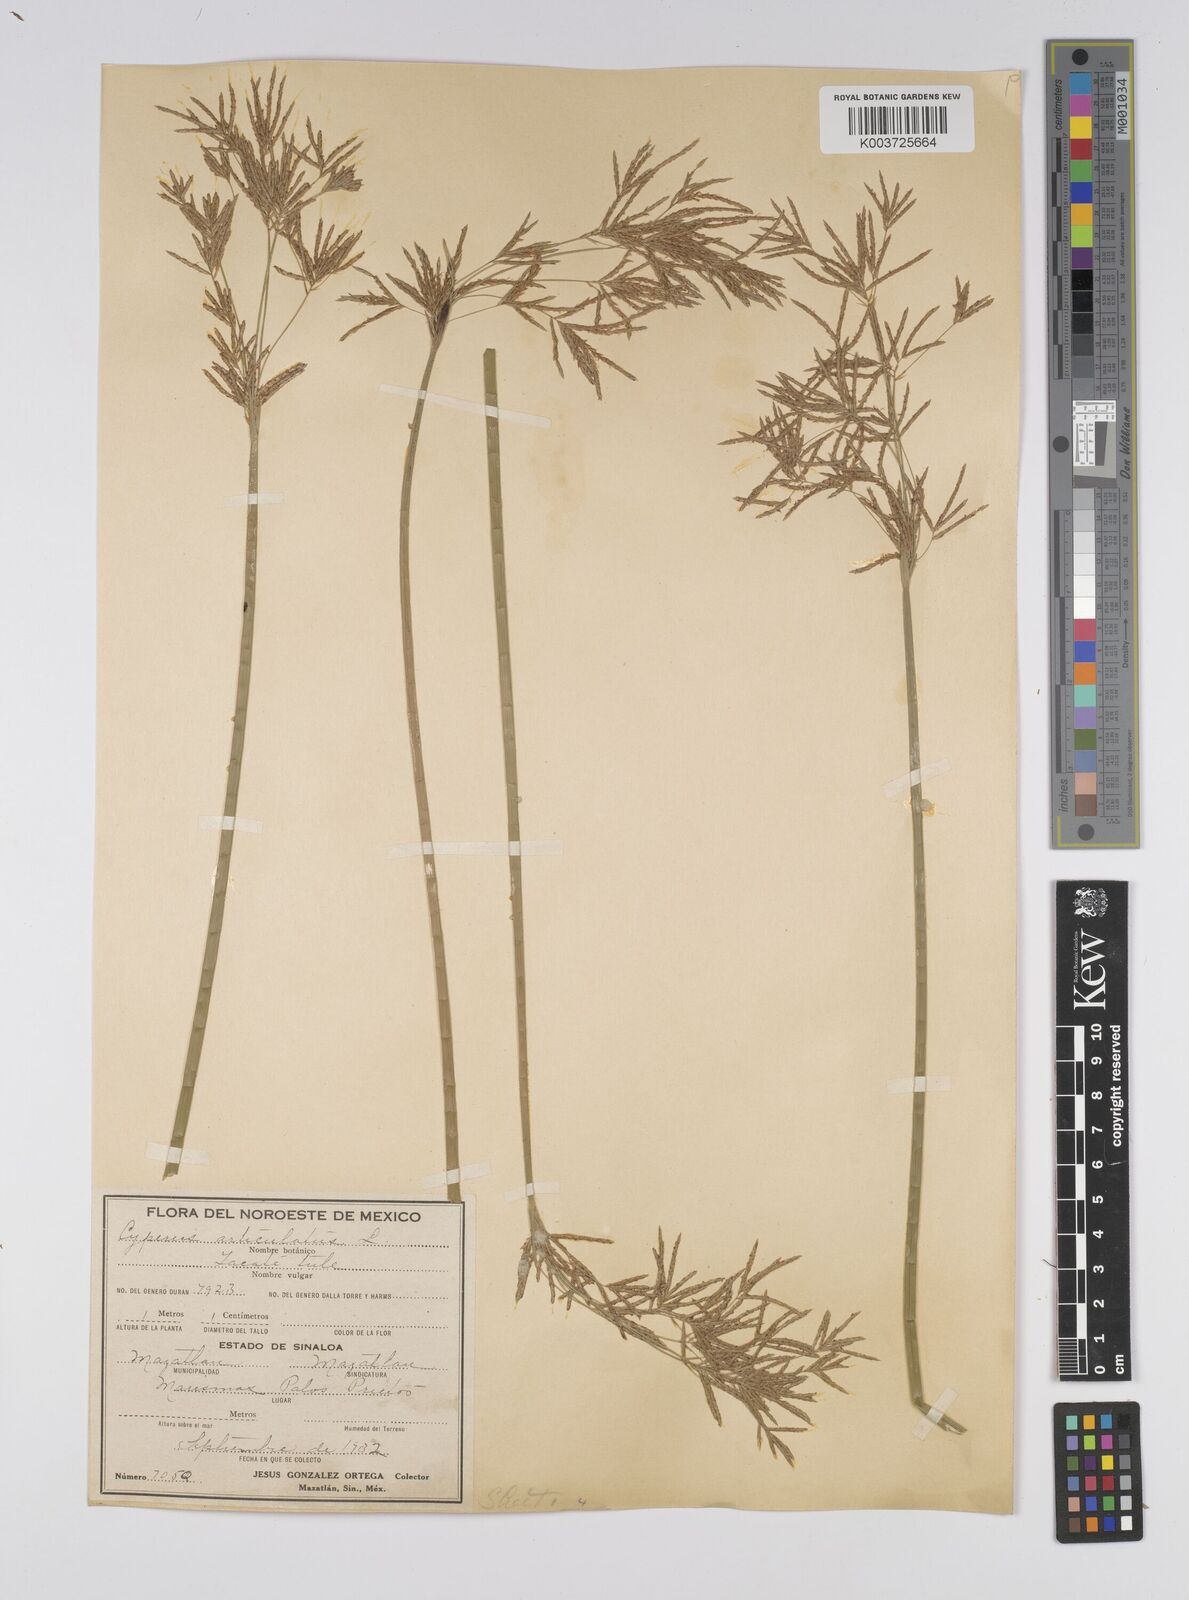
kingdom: Plantae
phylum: Tracheophyta
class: Liliopsida
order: Poales
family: Cyperaceae
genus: Cyperus
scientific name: Cyperus articulatus
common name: Jointed flatsedge
